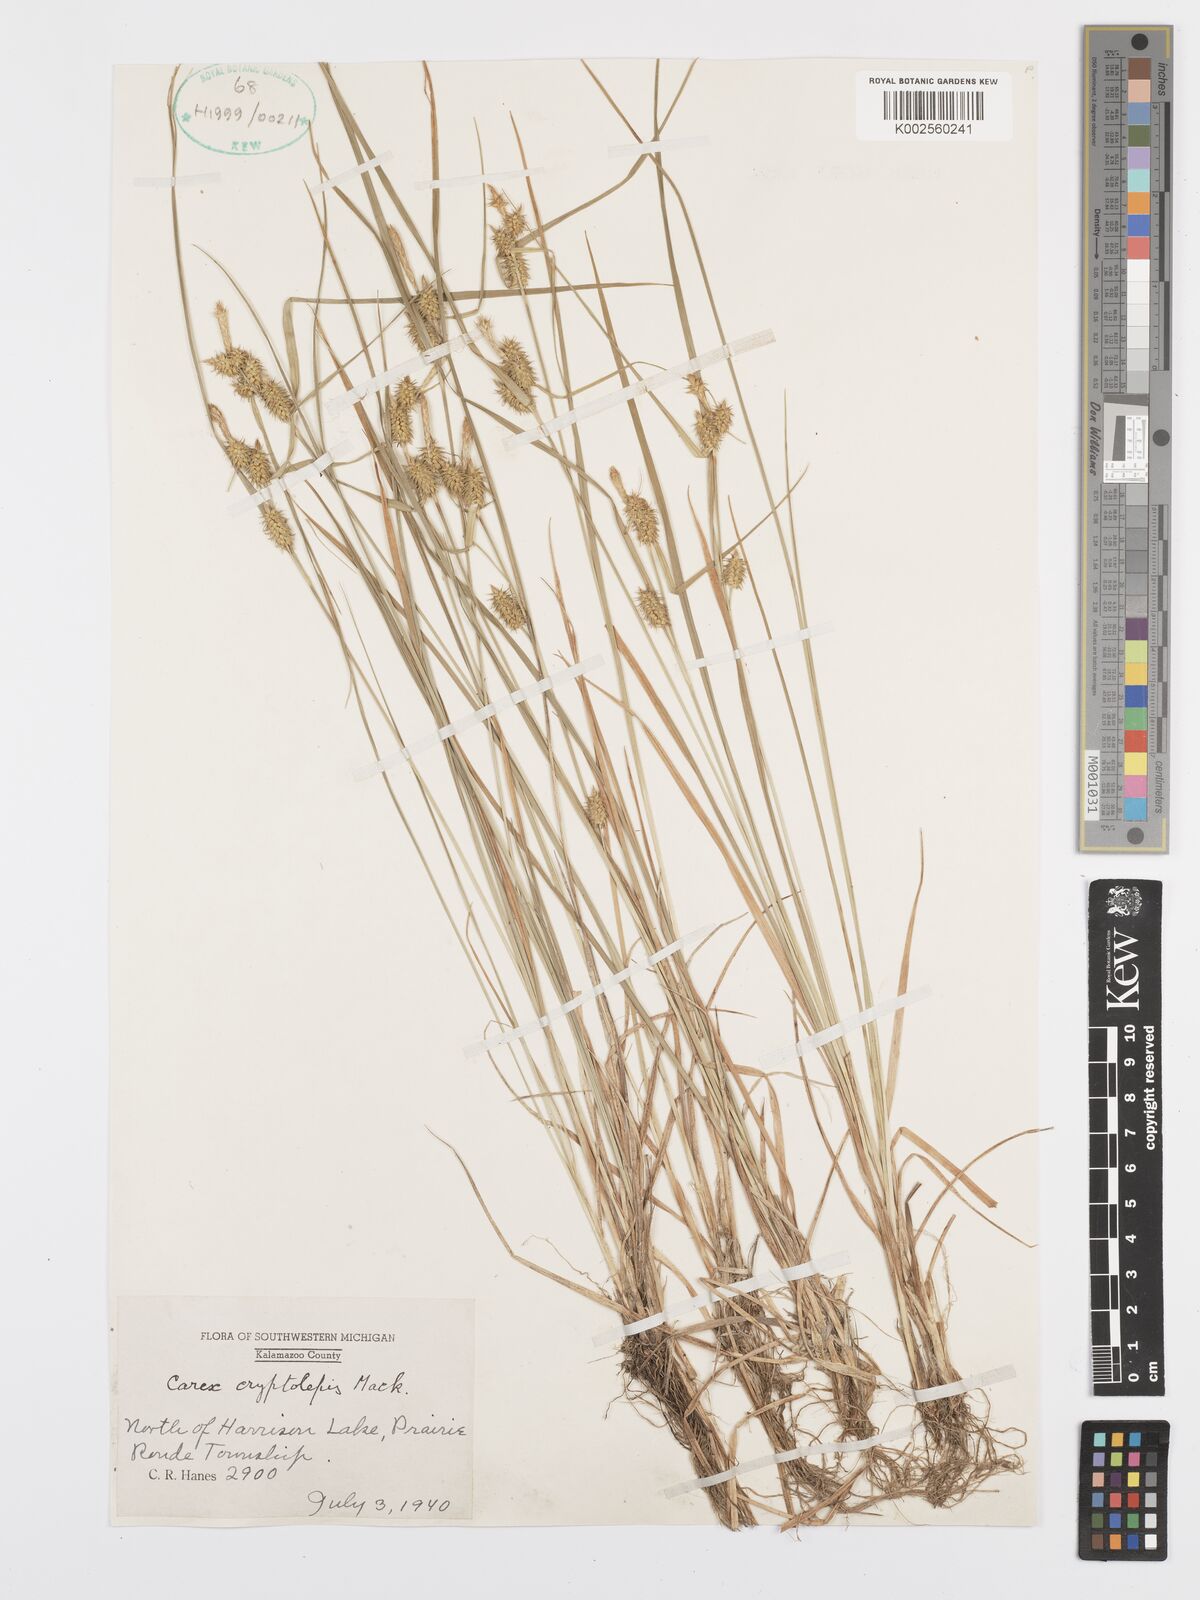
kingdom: Plantae
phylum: Tracheophyta
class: Liliopsida
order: Poales
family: Cyperaceae
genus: Carex
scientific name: Carex cryptolepis
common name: Northeastern sedge
